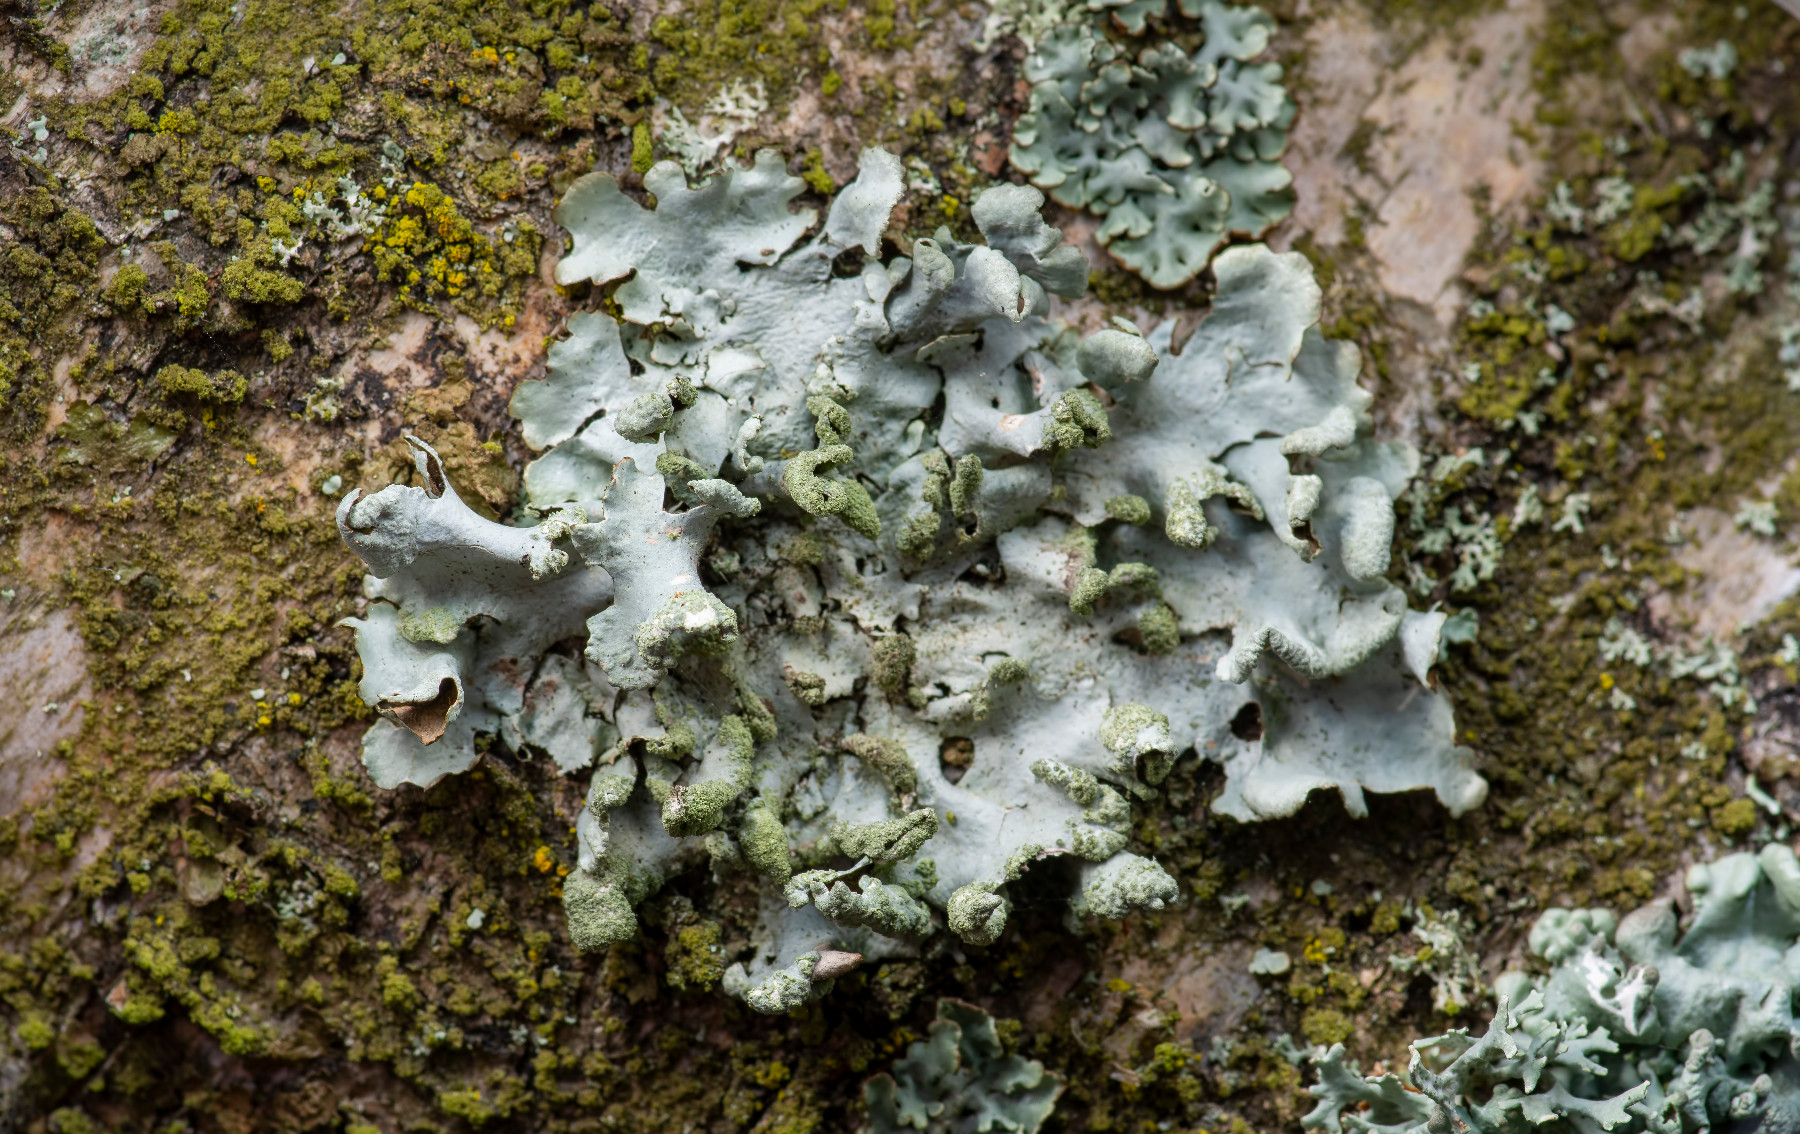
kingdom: Fungi
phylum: Ascomycota
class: Lecanoromycetes
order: Lecanorales
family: Parmeliaceae
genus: Hypotrachyna
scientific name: Hypotrachyna revoluta
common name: bleggrå skållav
